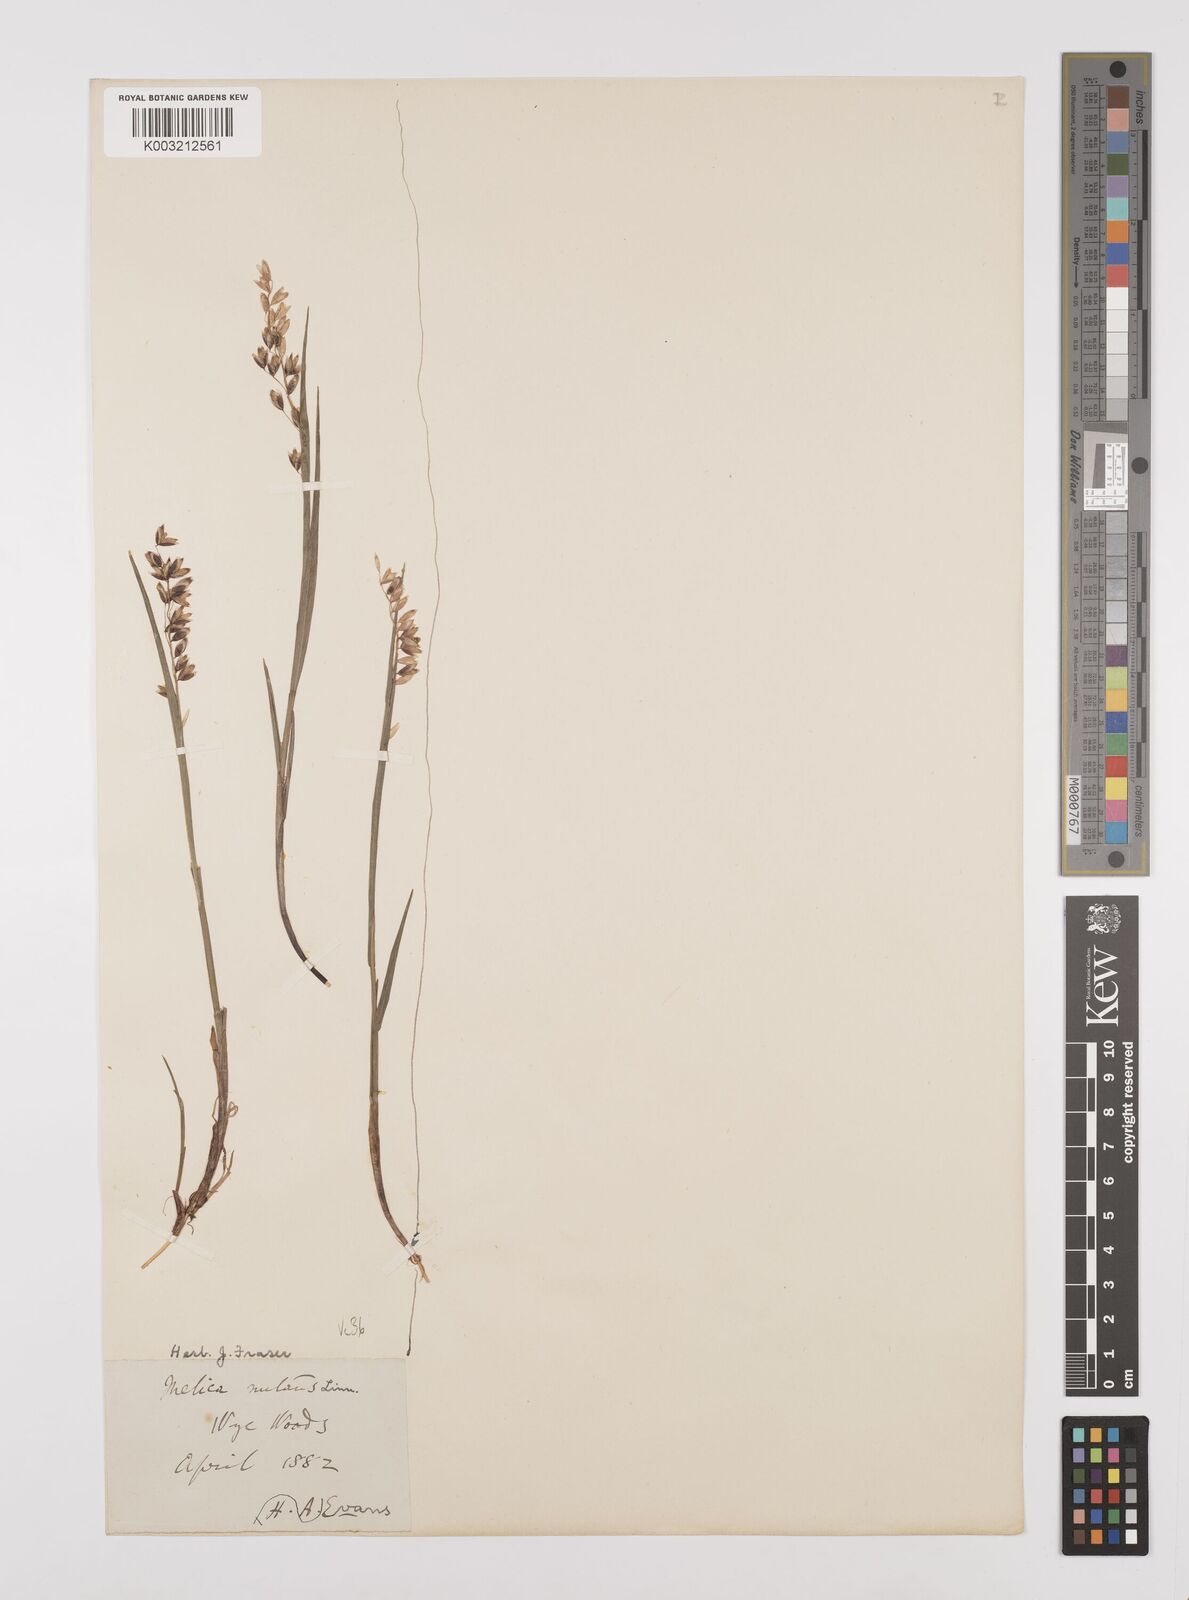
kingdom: Plantae
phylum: Tracheophyta
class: Liliopsida
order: Poales
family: Poaceae
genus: Melica
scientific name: Melica
